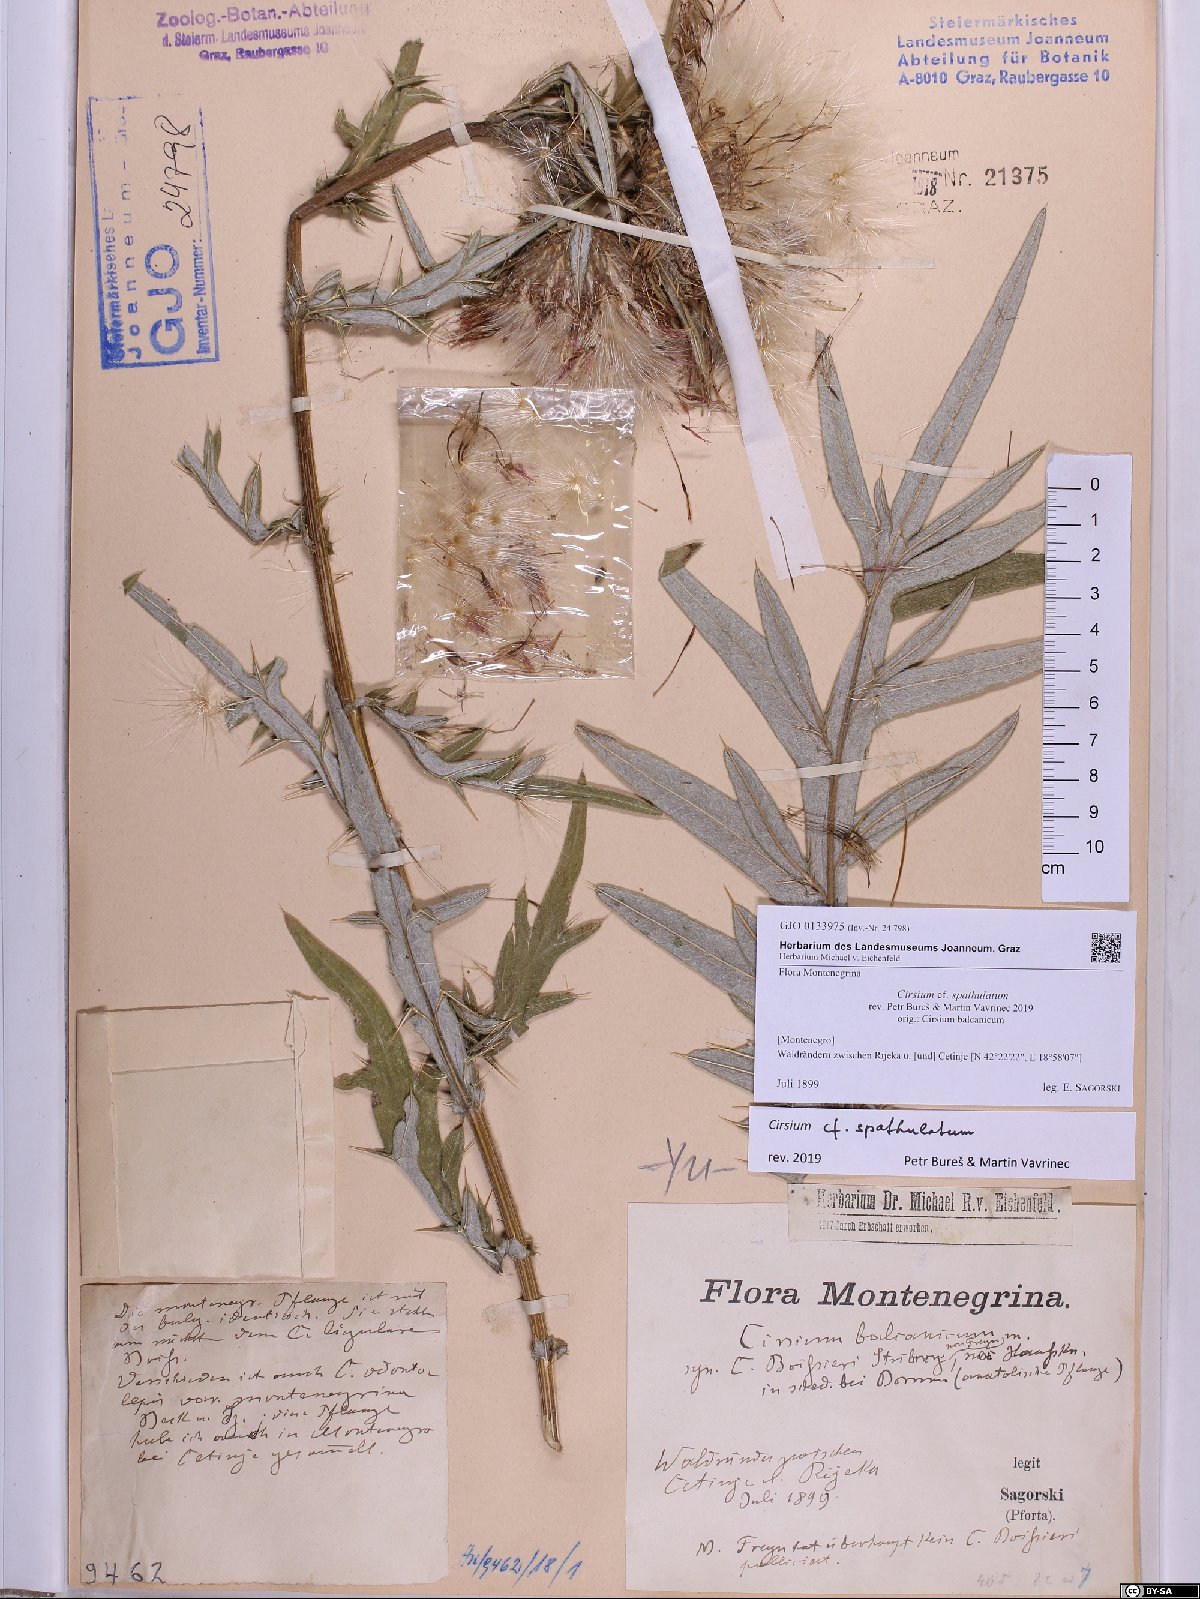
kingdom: Plantae
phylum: Tracheophyta
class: Magnoliopsida
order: Asterales
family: Asteraceae
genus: Lophiolepis
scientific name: Lophiolepis spathulata
